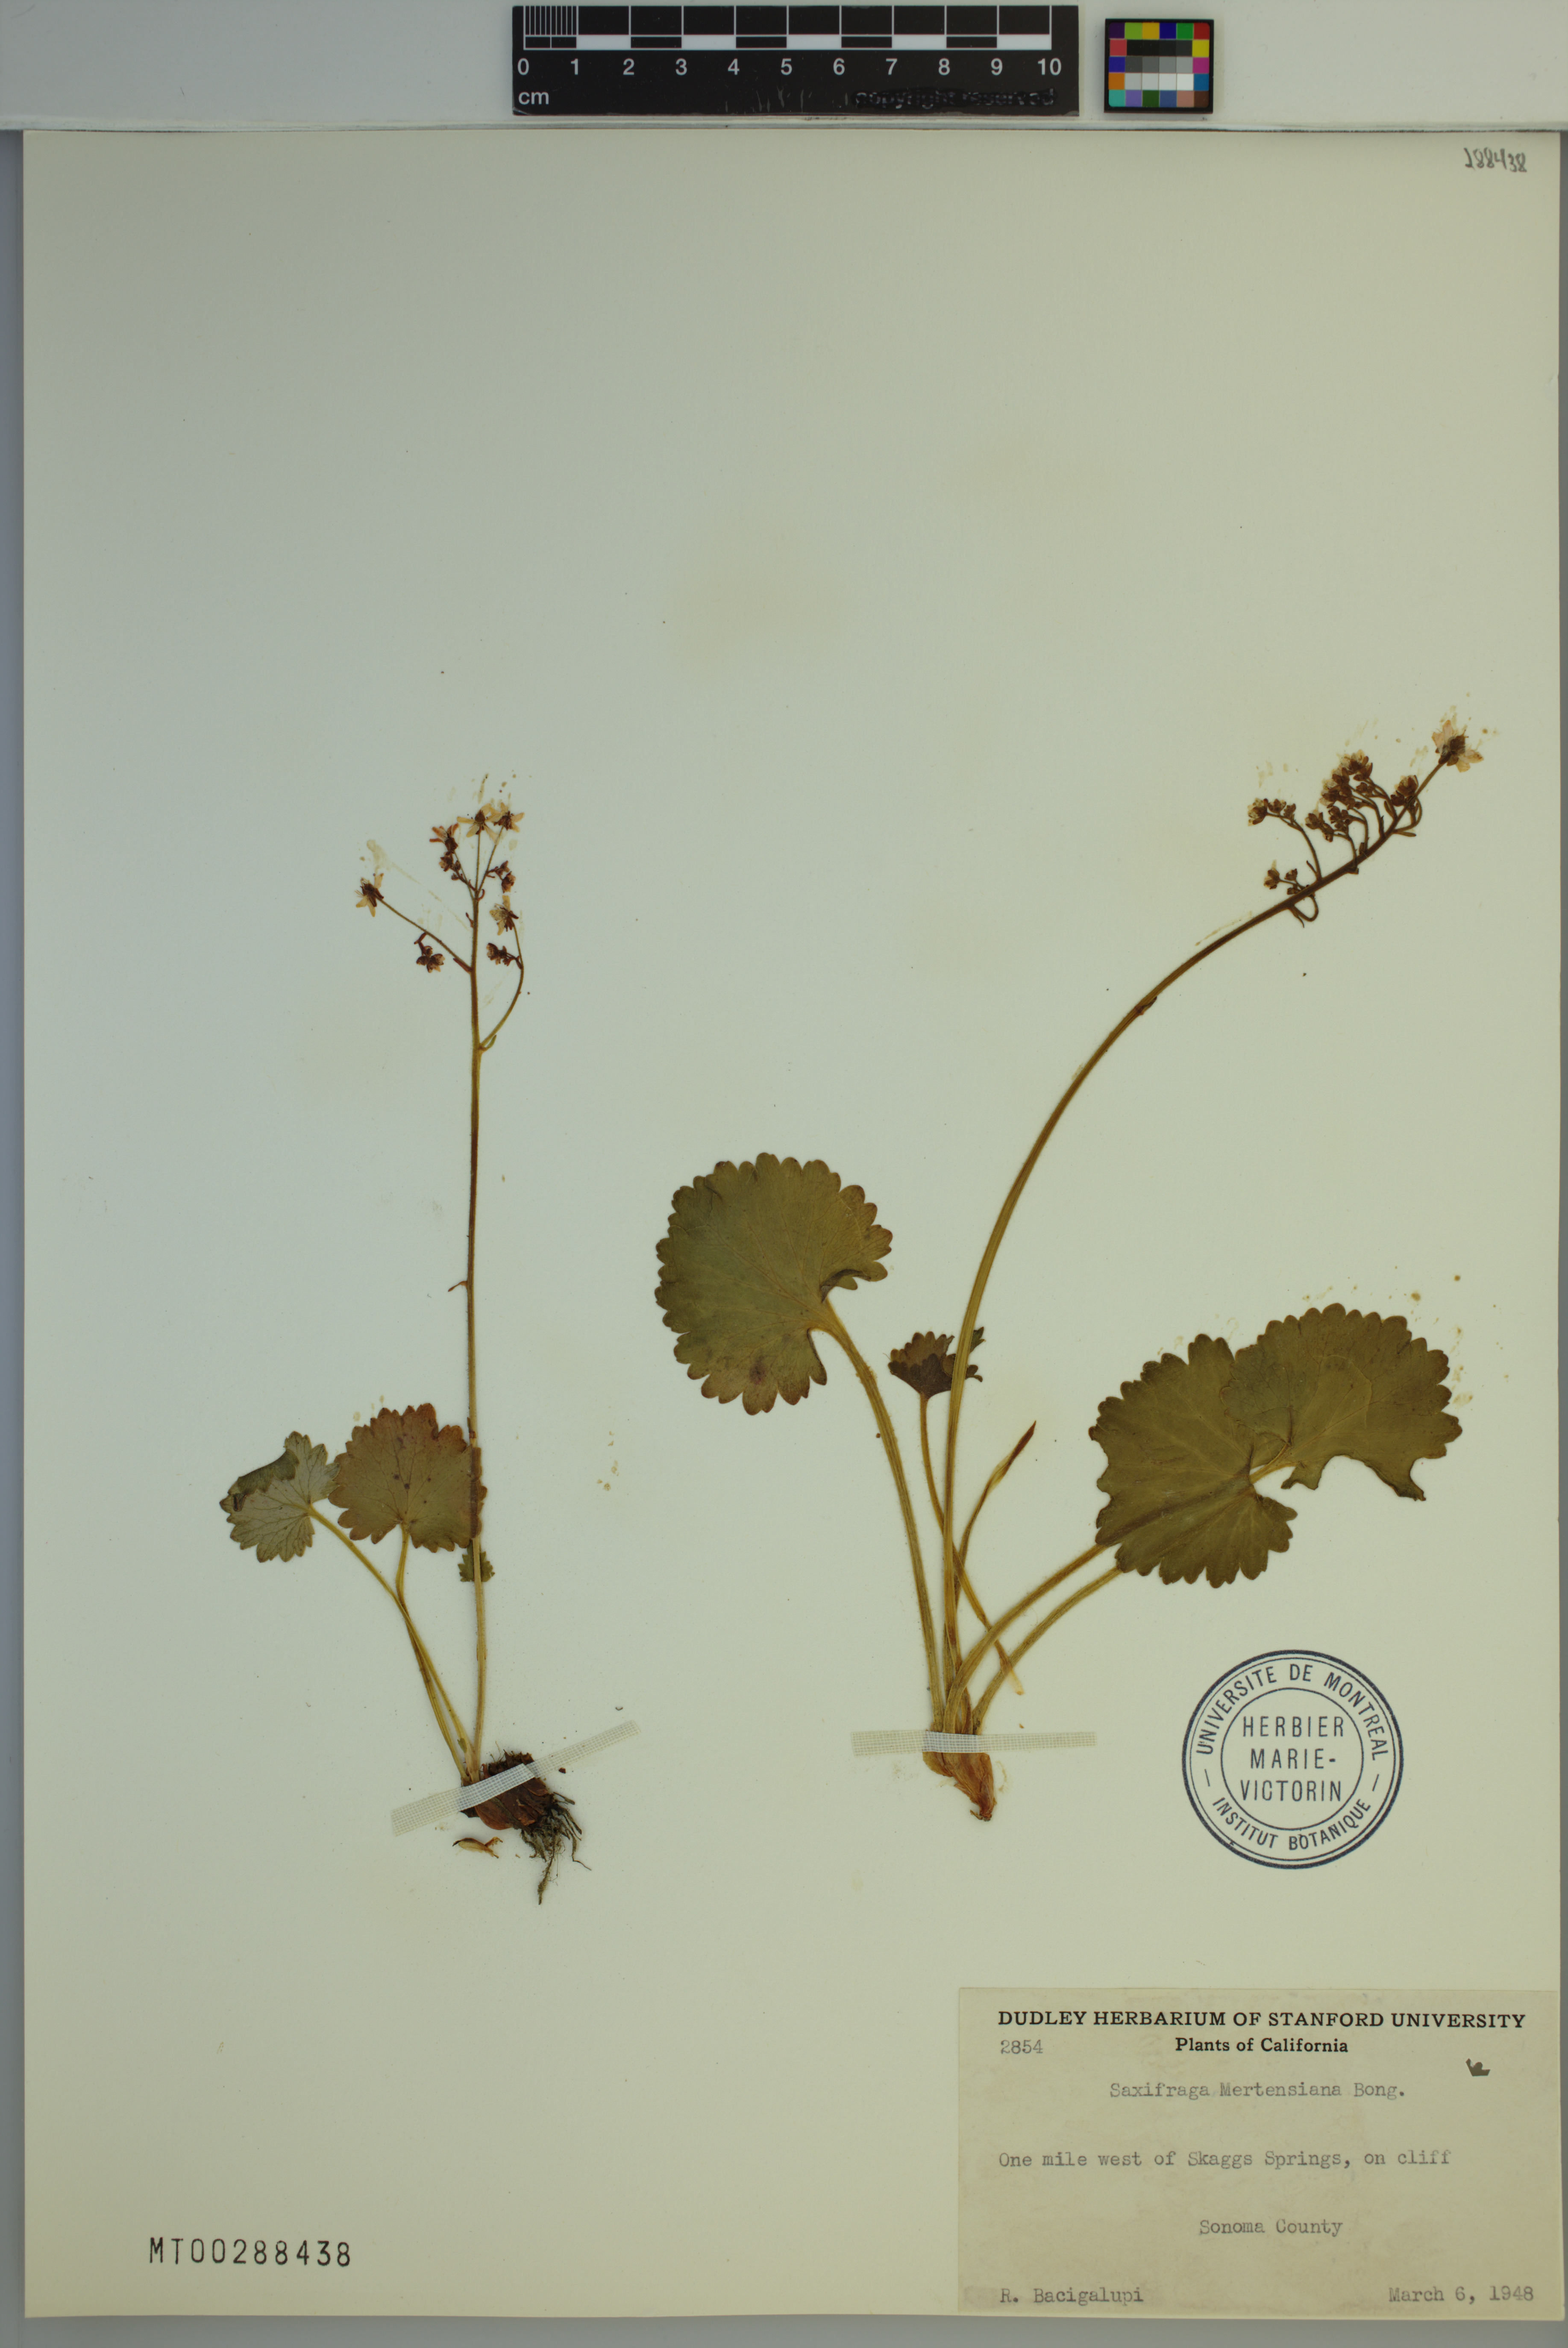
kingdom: Plantae
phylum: Tracheophyta
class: Magnoliopsida
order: Saxifragales
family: Saxifragaceae
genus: Micranthes
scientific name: Micranthes mertensiana
